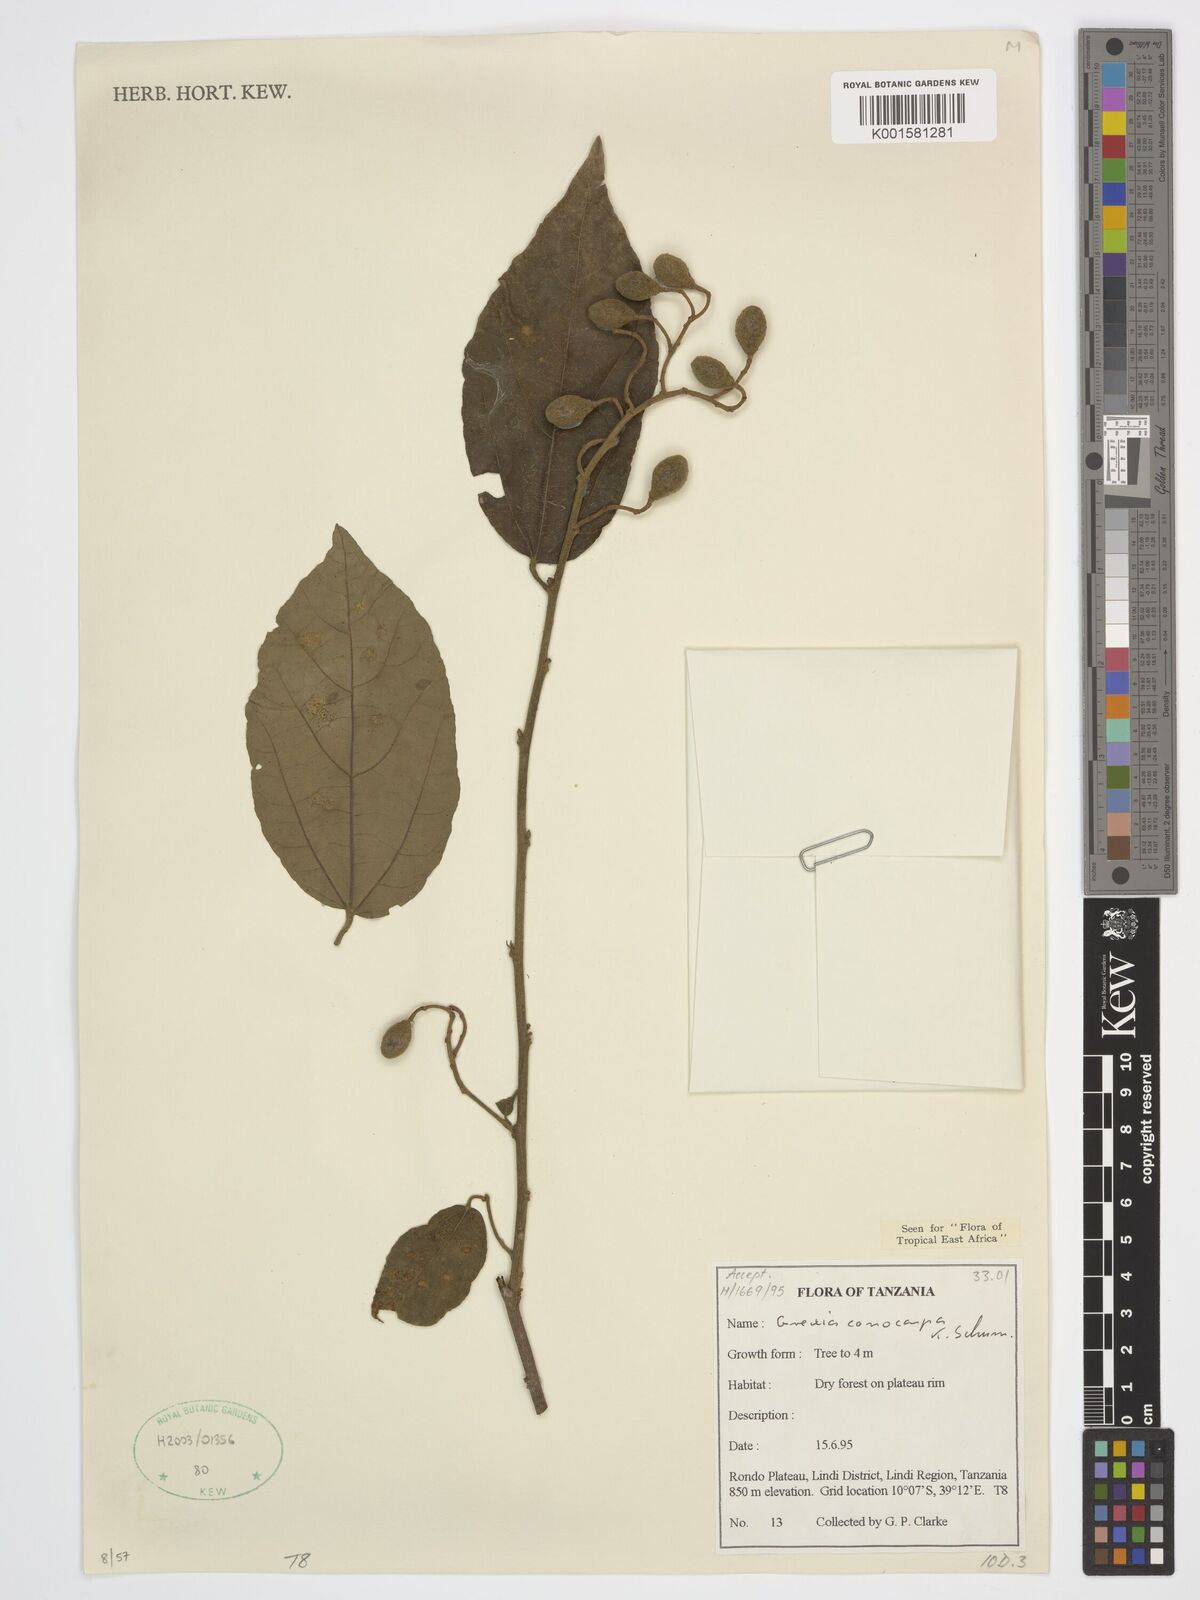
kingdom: Plantae
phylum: Tracheophyta
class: Magnoliopsida
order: Malvales
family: Malvaceae
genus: Microcos
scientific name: Microcos conocarpa
